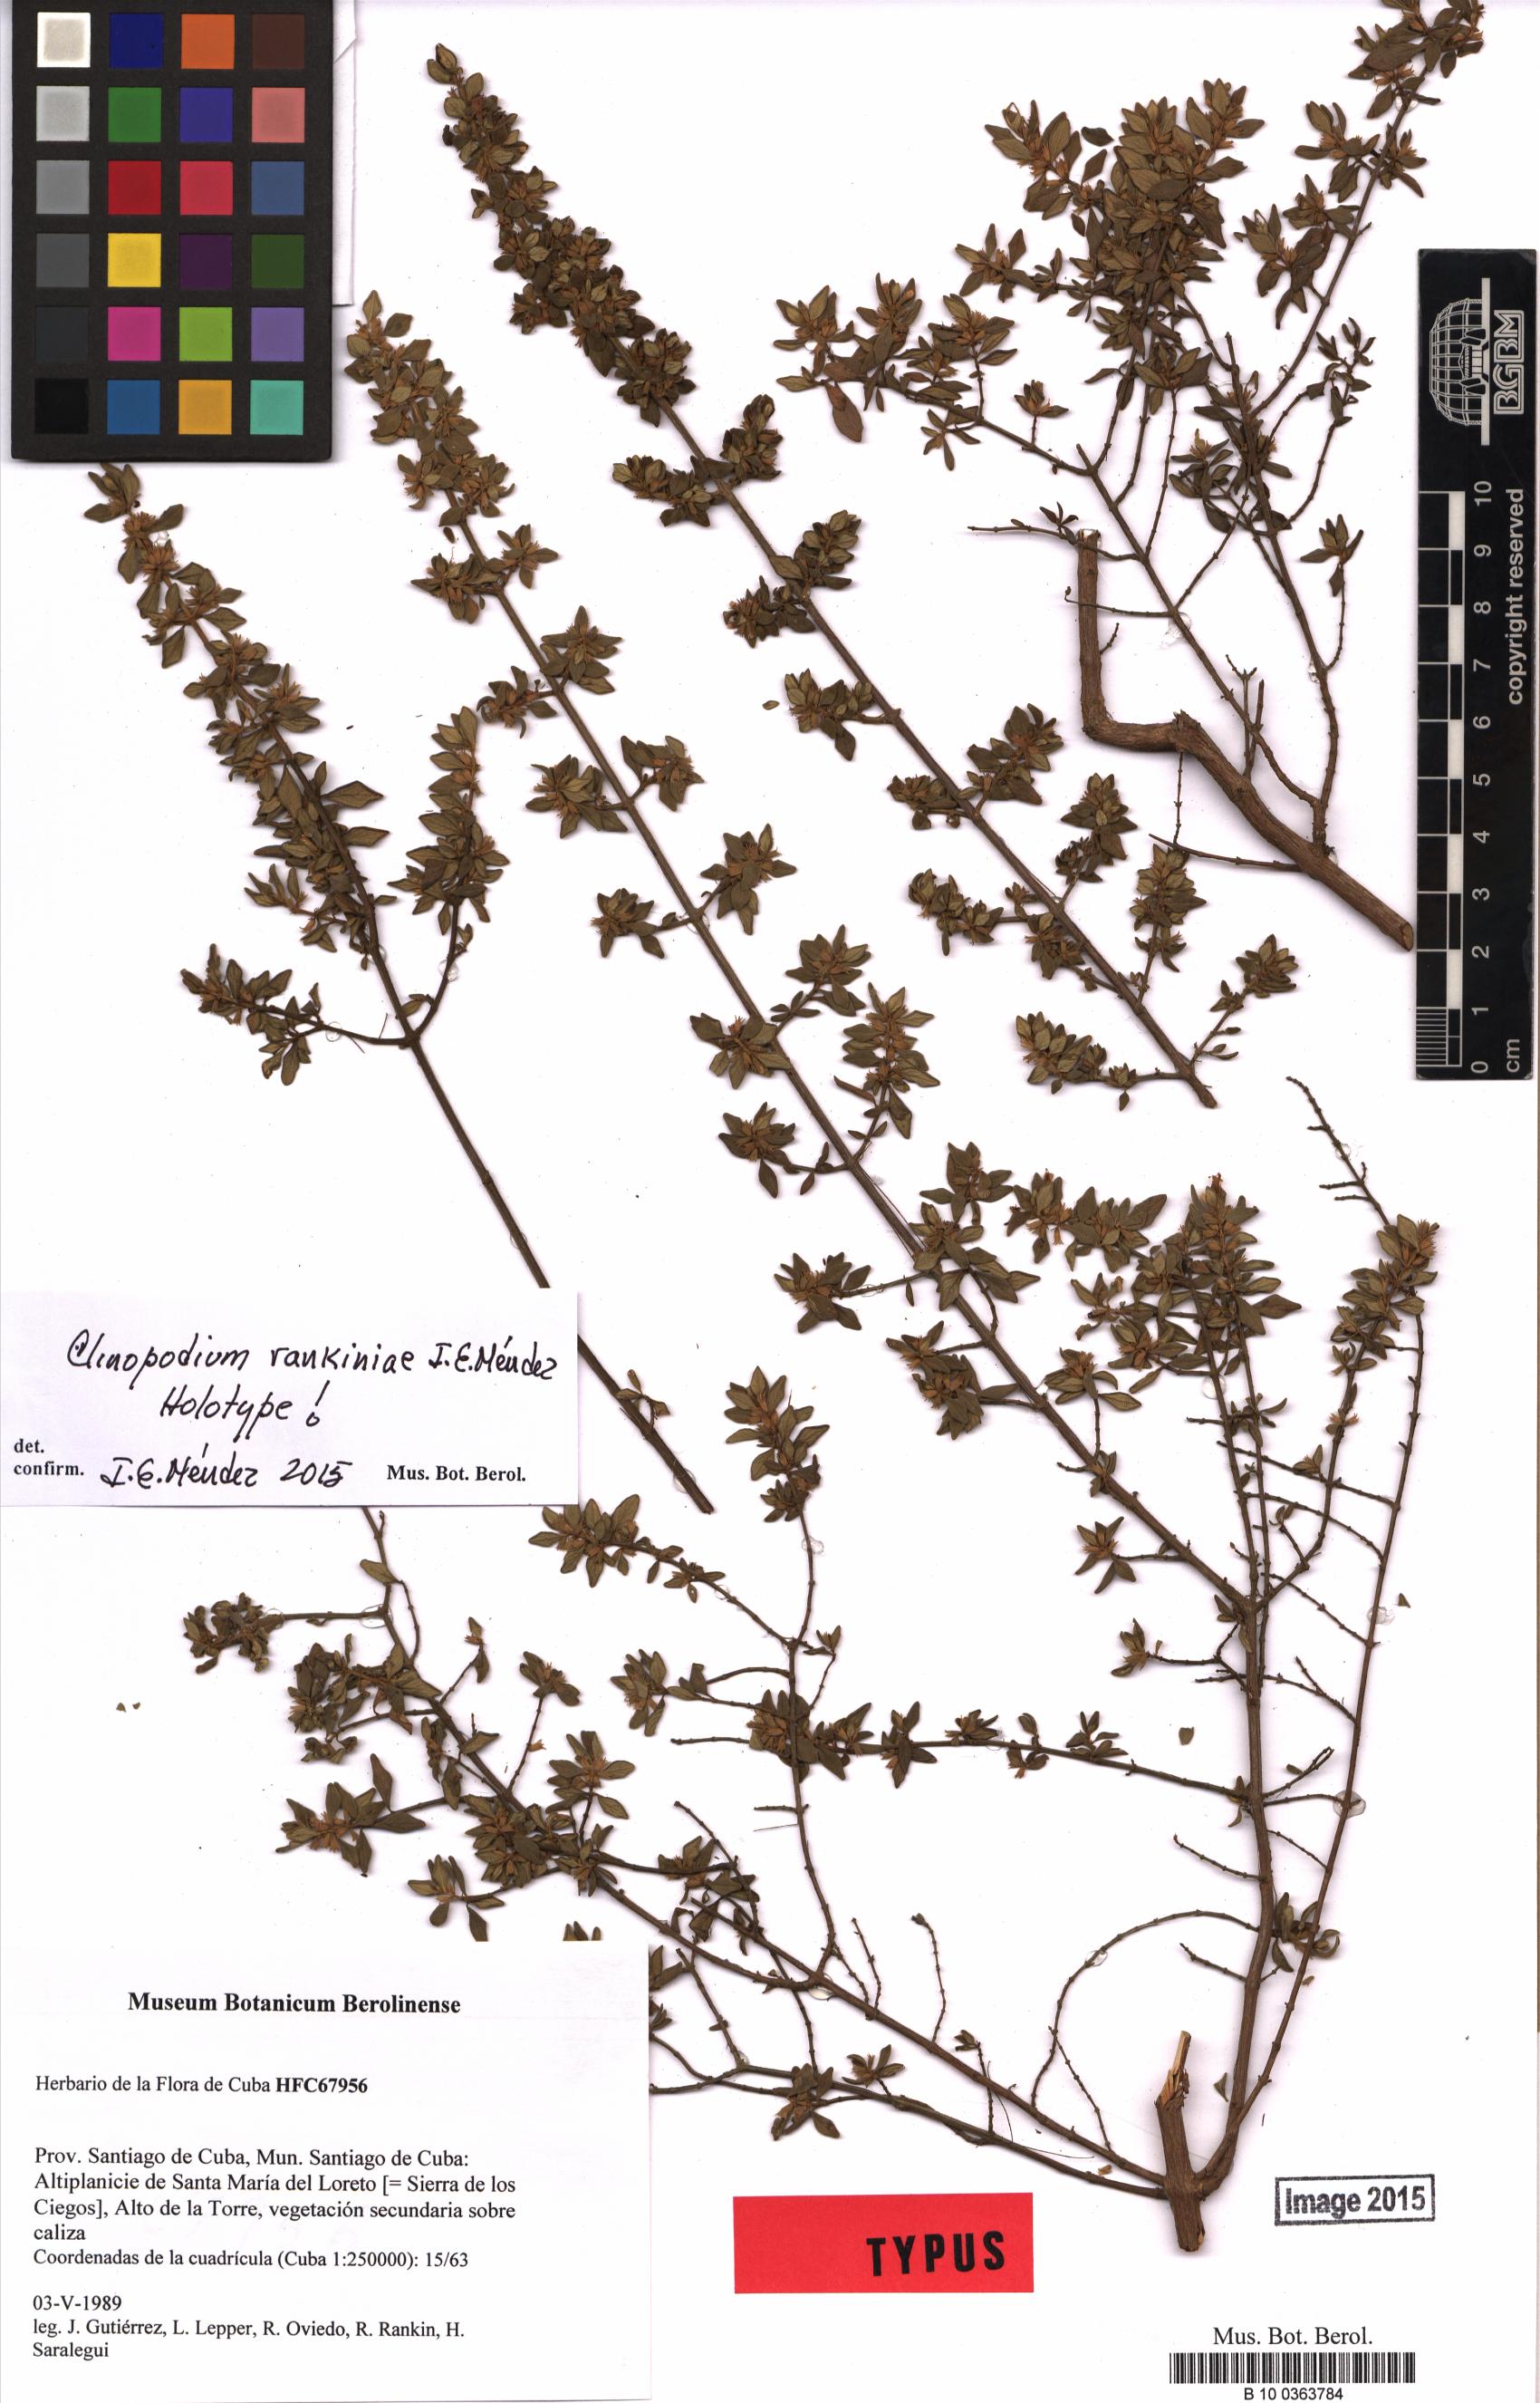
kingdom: Plantae
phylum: Tracheophyta
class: Magnoliopsida
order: Lamiales
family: Lamiaceae
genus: Clinopodium
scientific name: Clinopodium rankiniae
